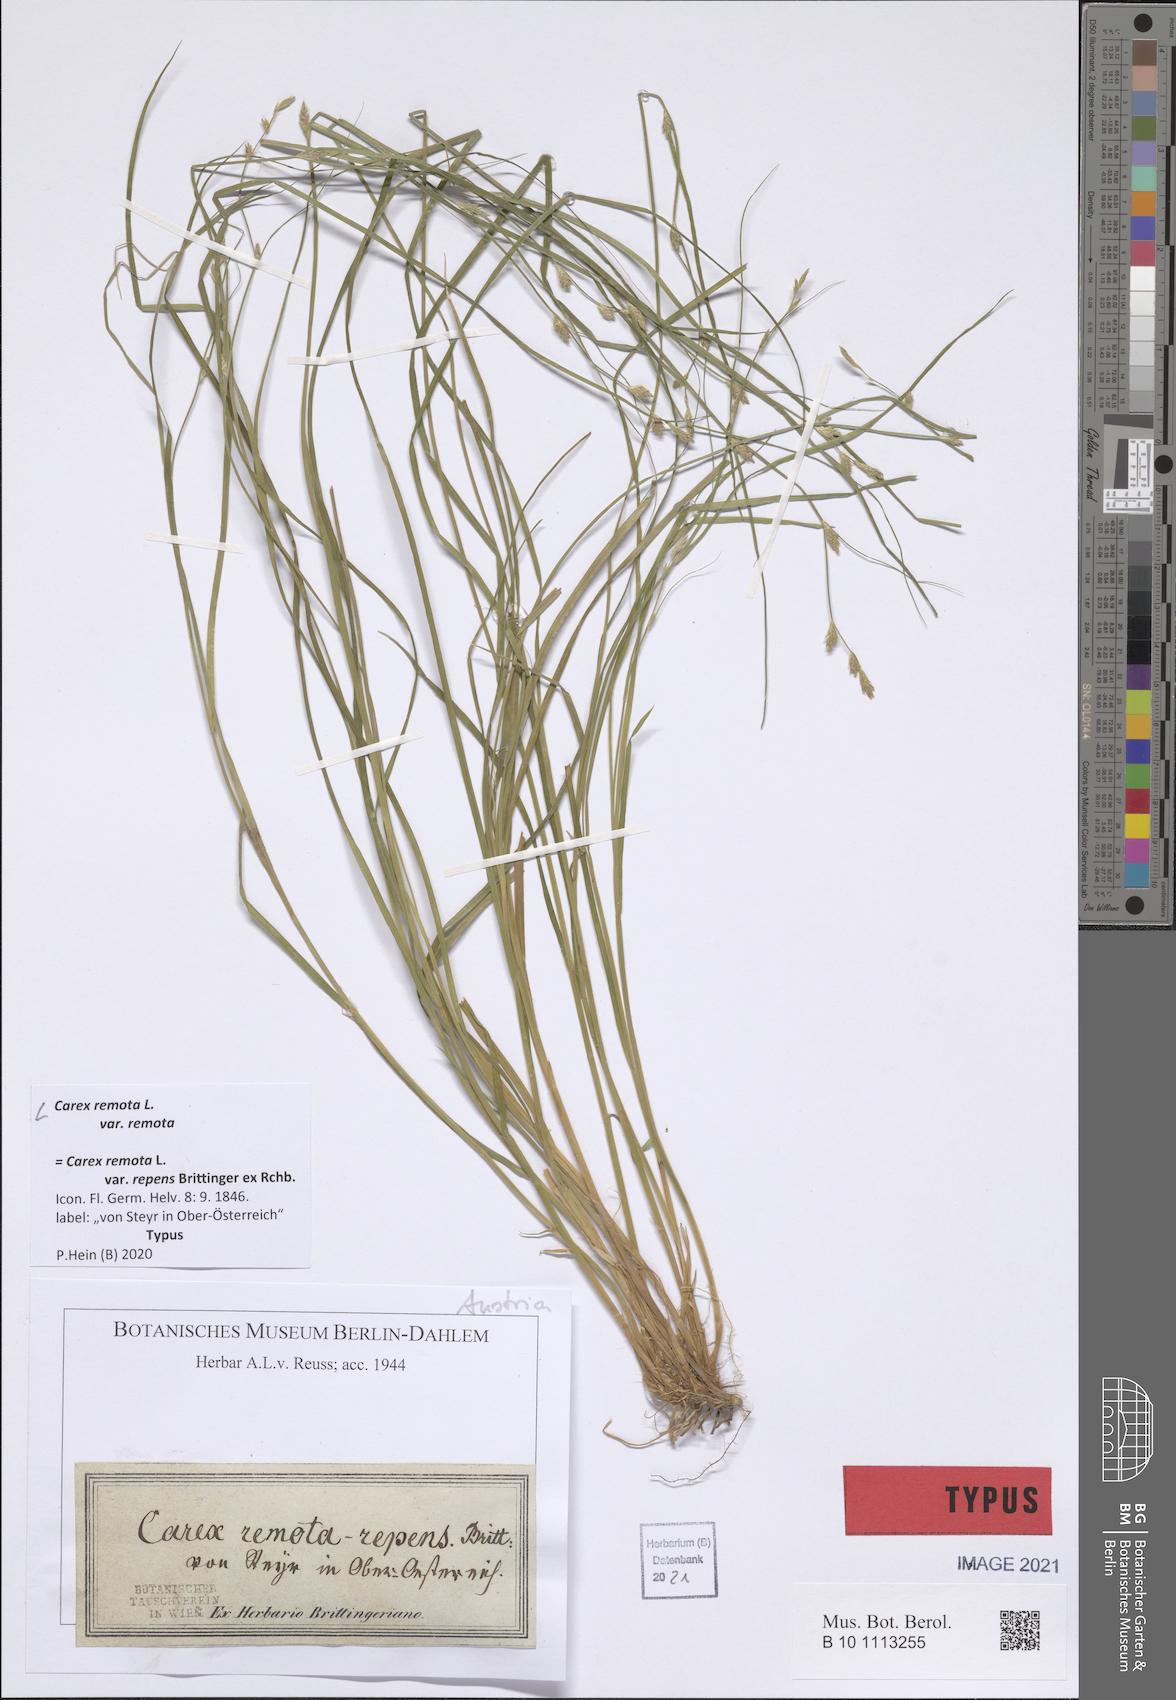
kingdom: Plantae
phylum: Tracheophyta
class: Liliopsida
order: Poales
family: Cyperaceae
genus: Carex
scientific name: Carex remota
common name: Remote sedge
